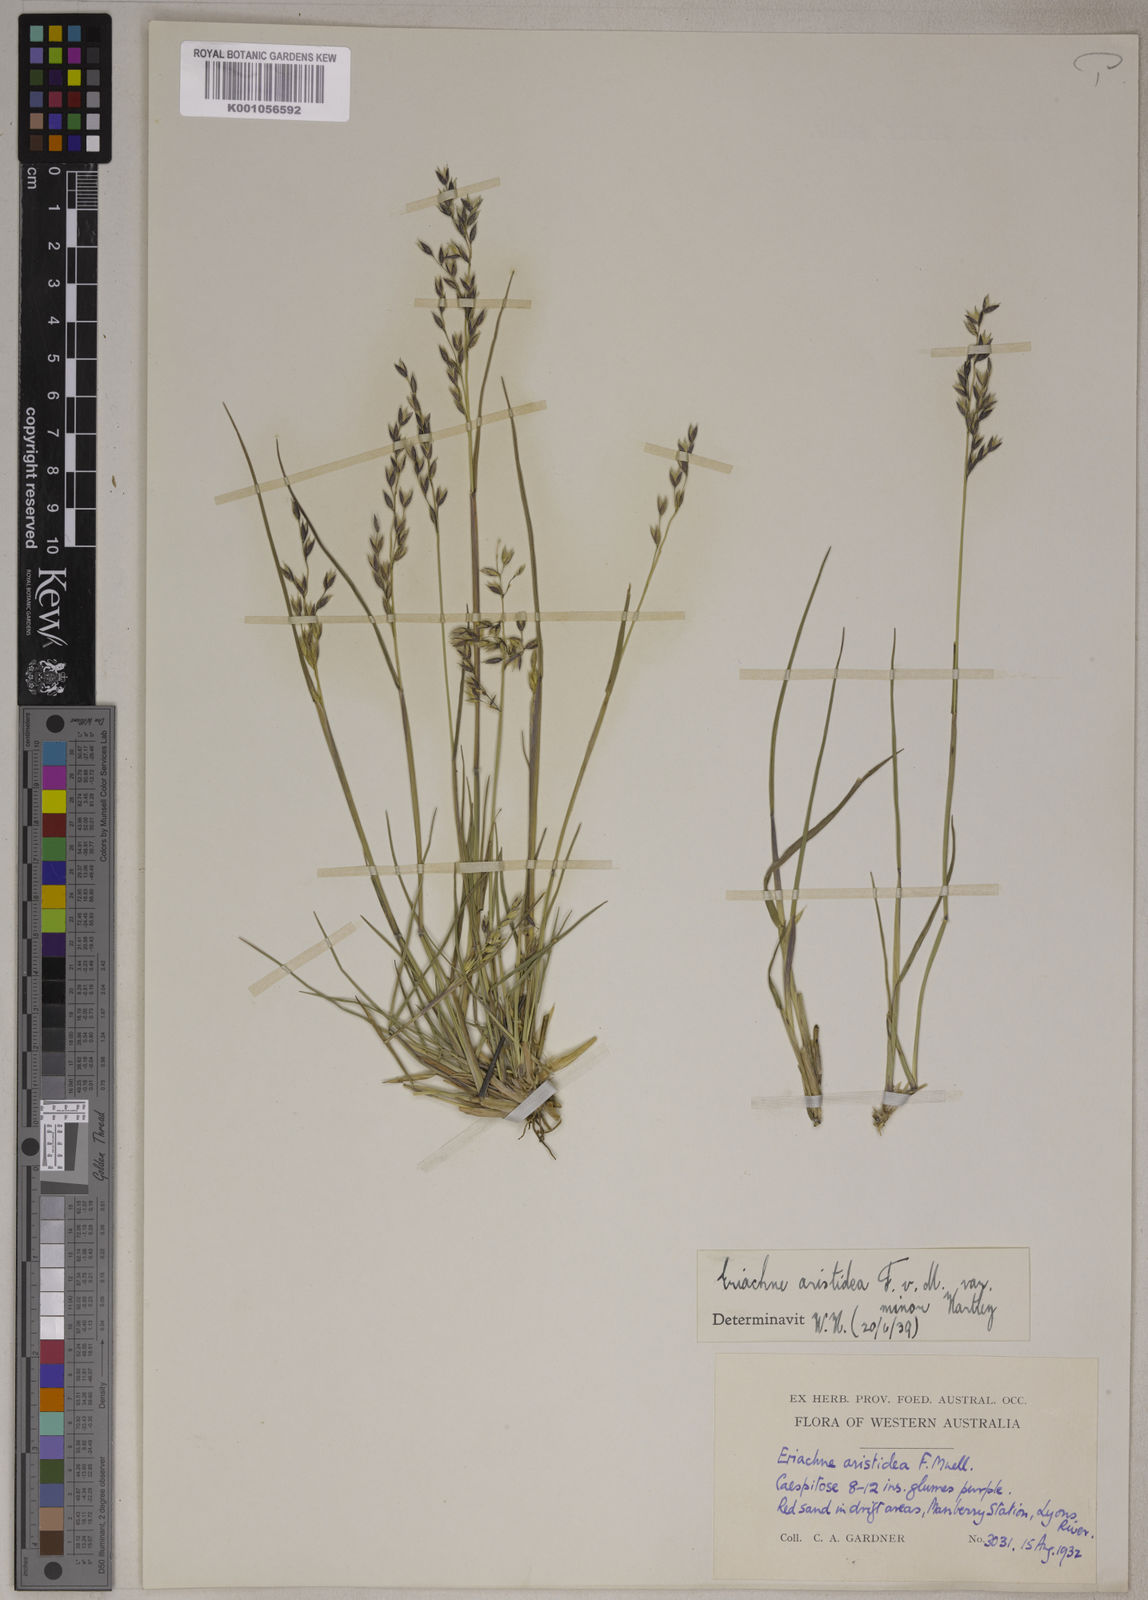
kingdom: Plantae
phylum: Tracheophyta
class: Liliopsida
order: Poales
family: Poaceae
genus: Eriachne
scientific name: Eriachne aristidea
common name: Three-awn wanderrie grass
